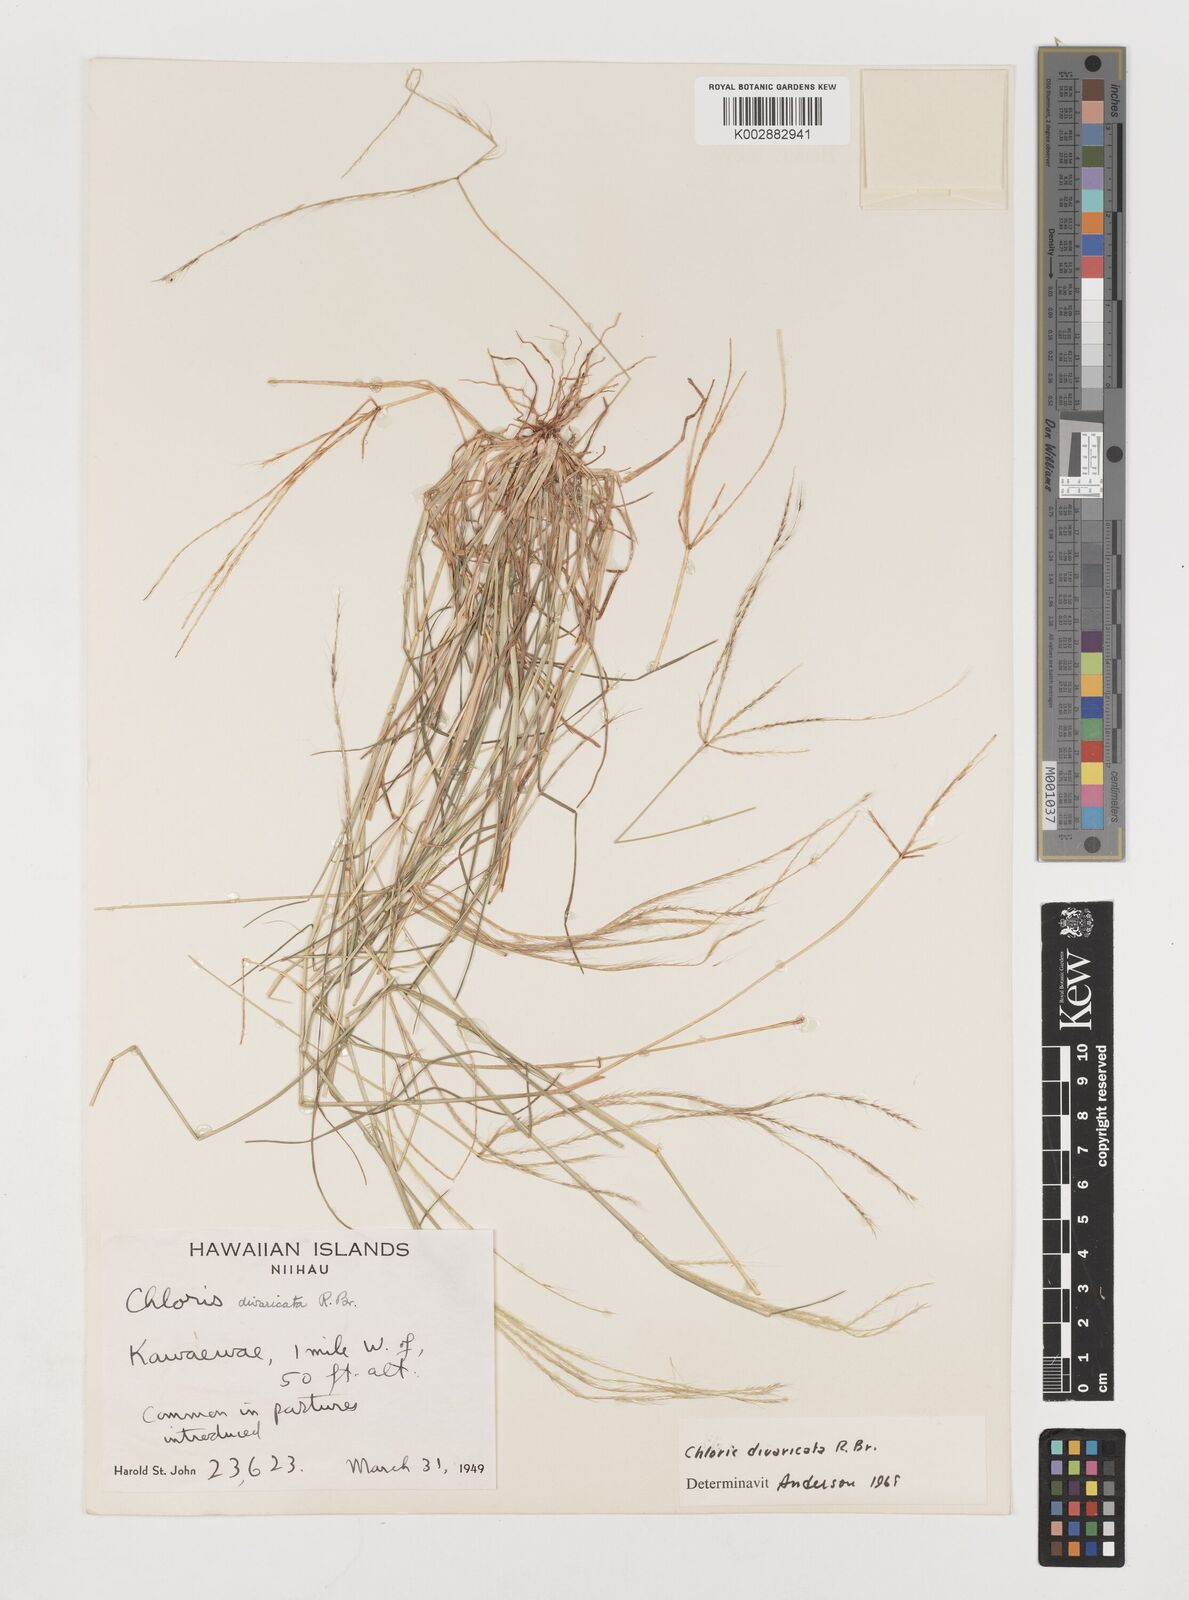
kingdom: Plantae
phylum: Tracheophyta
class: Liliopsida
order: Poales
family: Poaceae
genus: Chloris
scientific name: Chloris divaricata
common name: Spreading windmill grass
